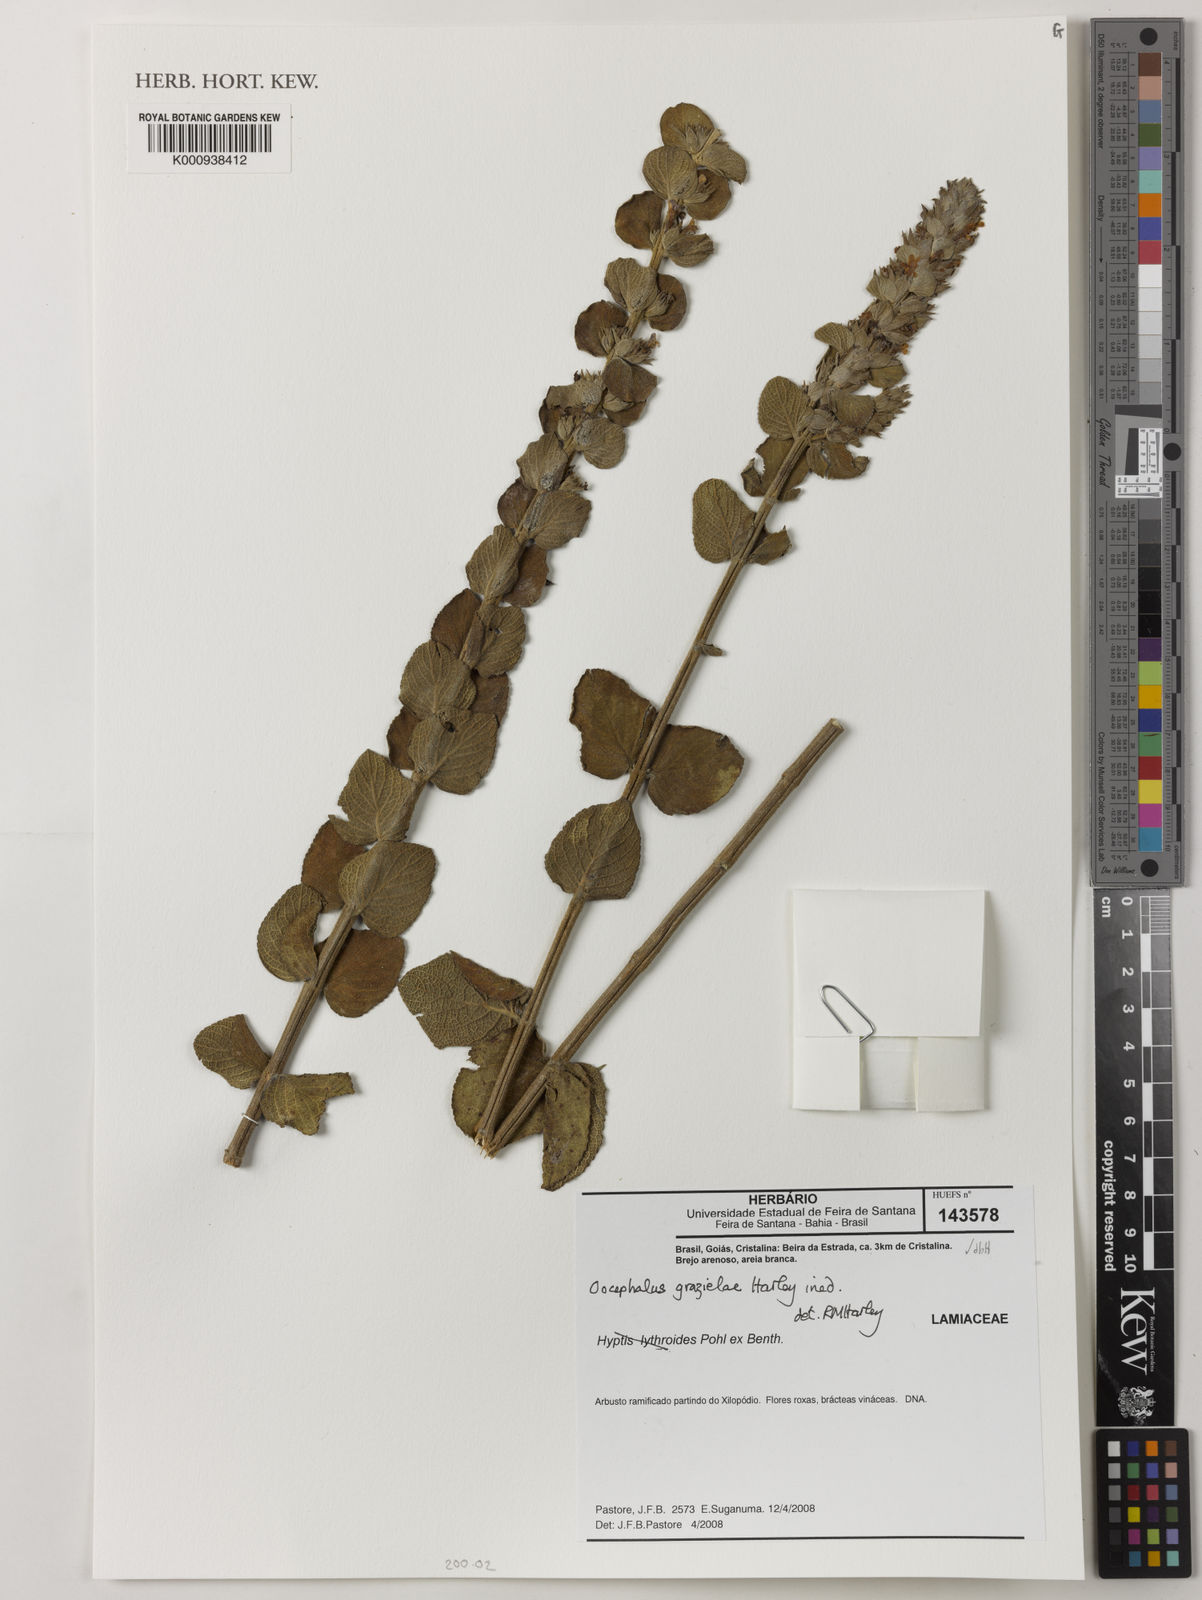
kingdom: Plantae
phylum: Tracheophyta
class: Magnoliopsida
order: Lamiales
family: Lamiaceae
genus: Oocephalus
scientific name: Oocephalus grazielae
